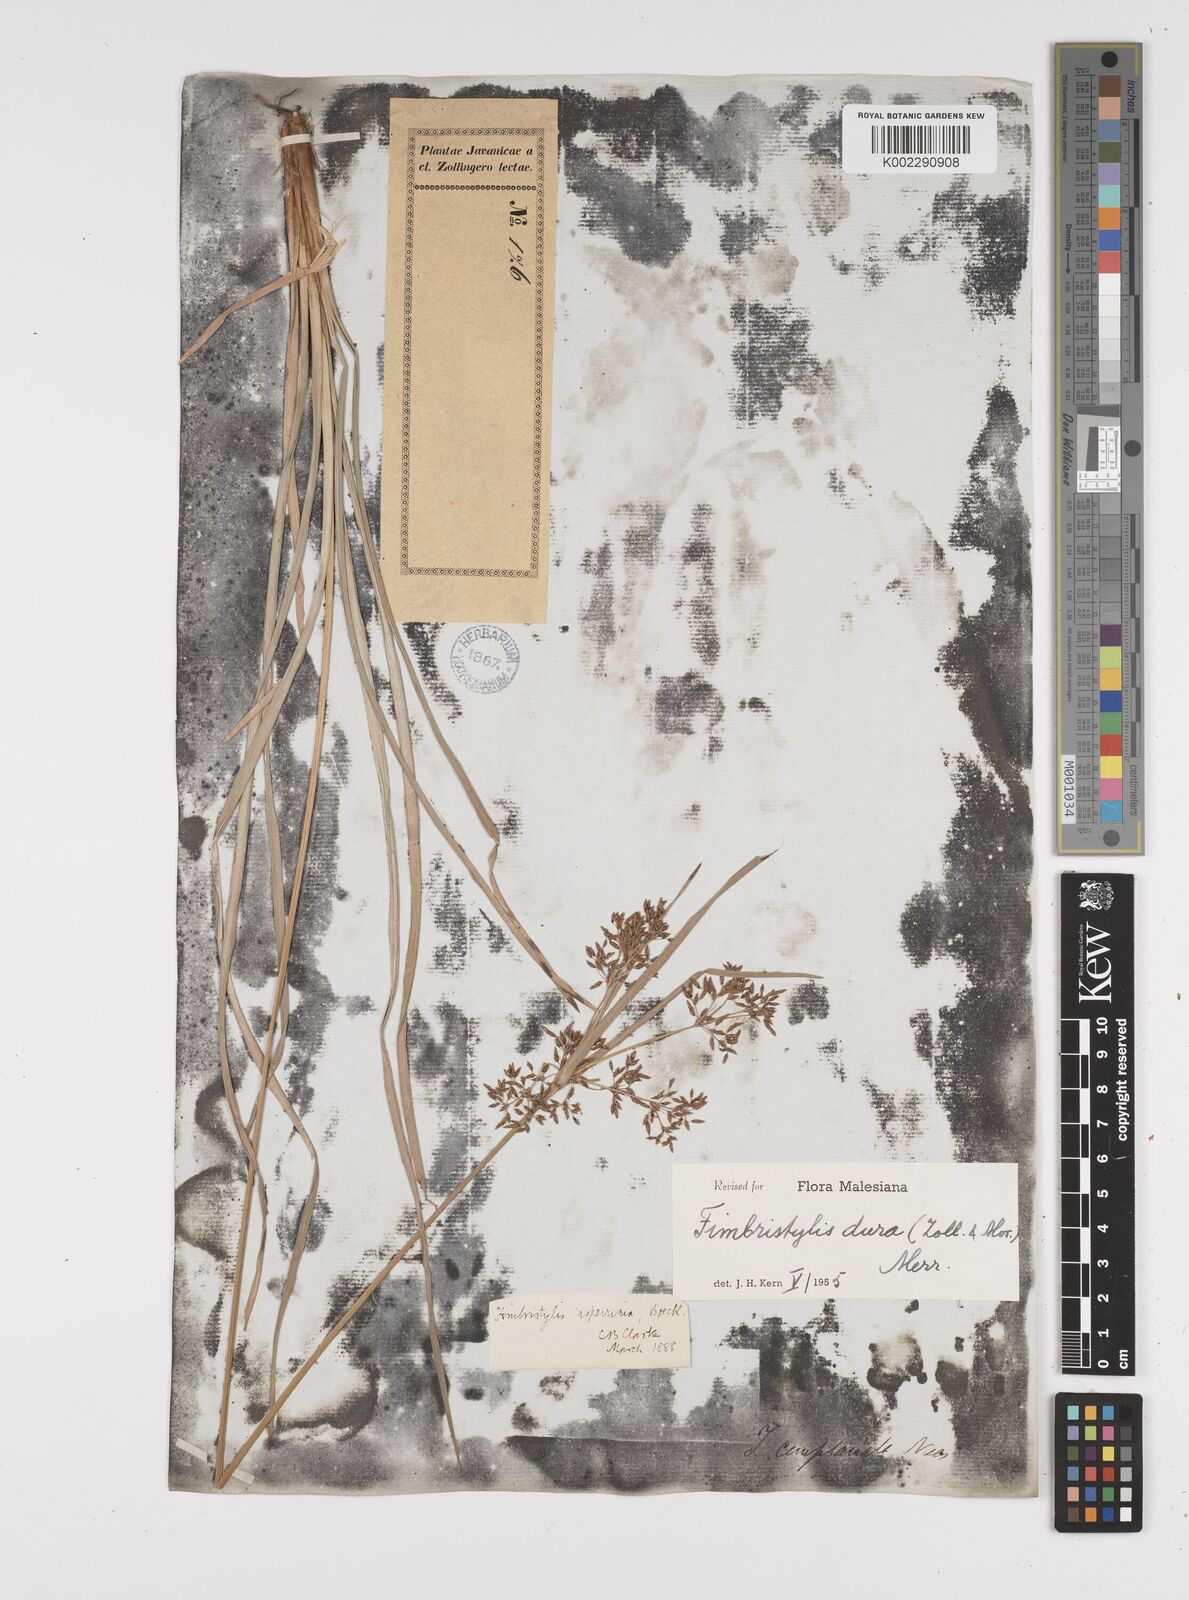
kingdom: Plantae
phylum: Tracheophyta
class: Liliopsida
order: Poales
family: Cyperaceae
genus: Fimbristylis
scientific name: Fimbristylis dura
